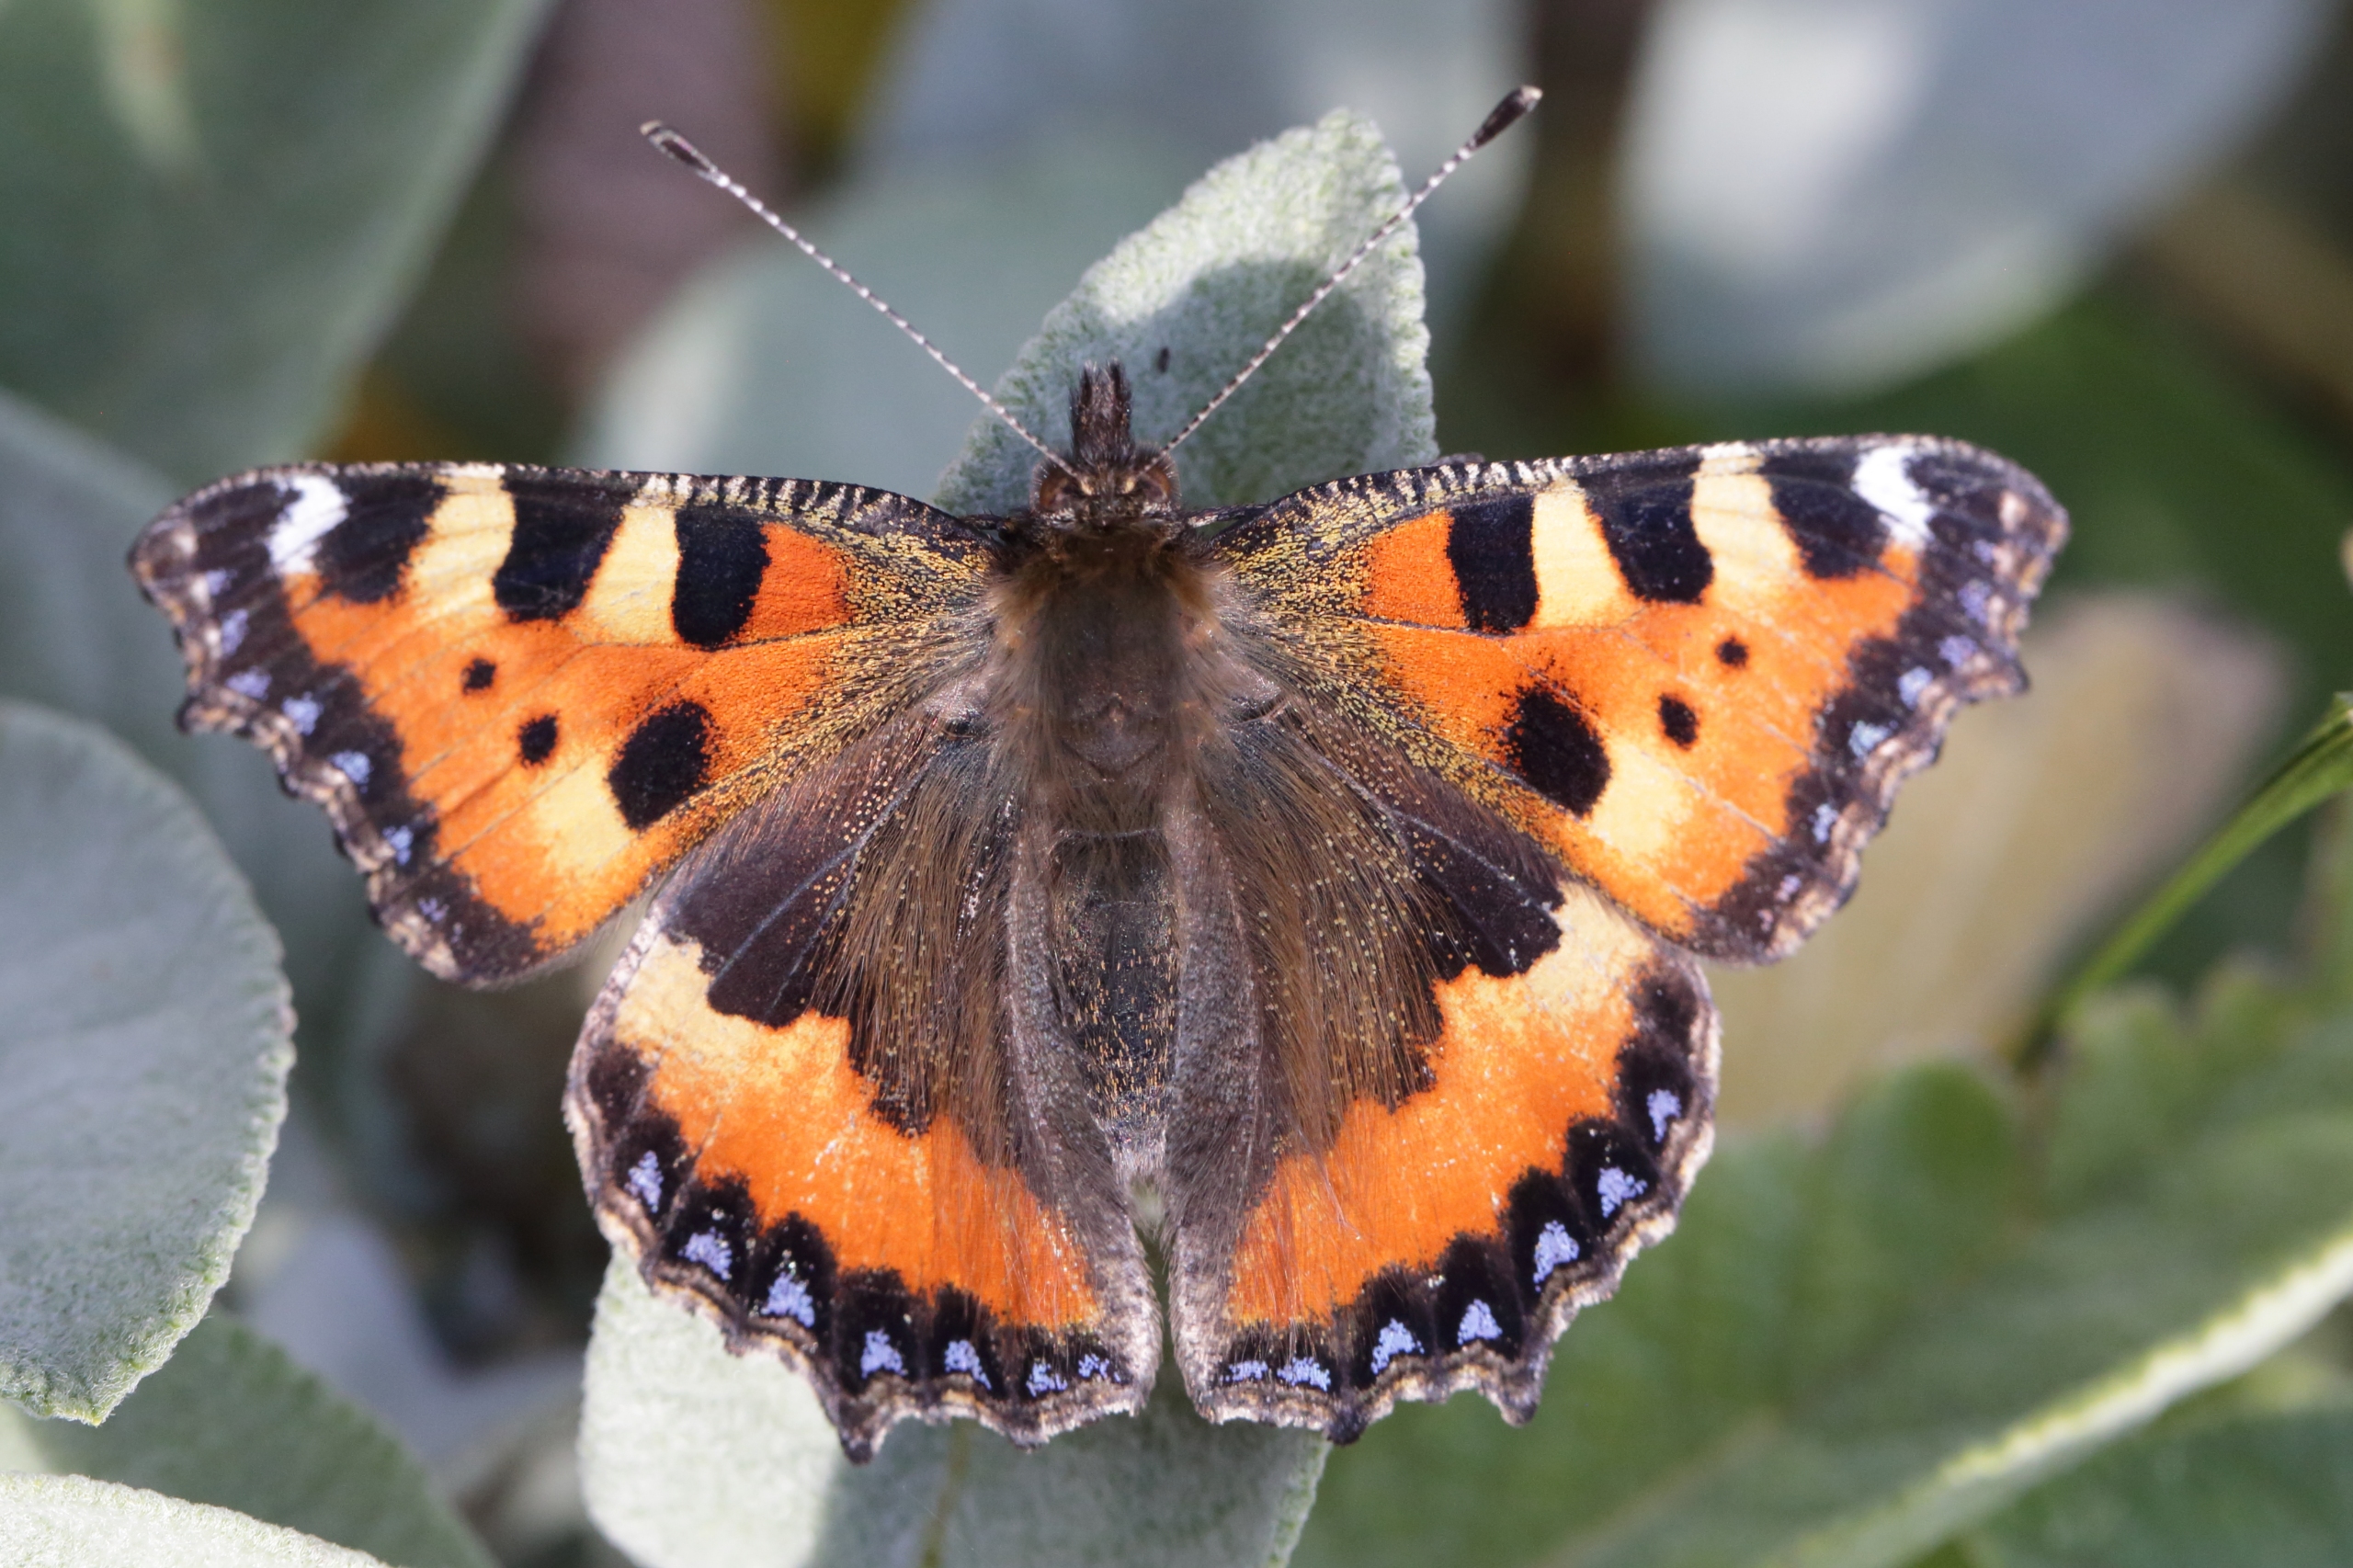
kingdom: Animalia
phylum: Arthropoda
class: Insecta
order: Lepidoptera
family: Nymphalidae
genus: Aglais
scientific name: Aglais urticae
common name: Nældens takvinge
